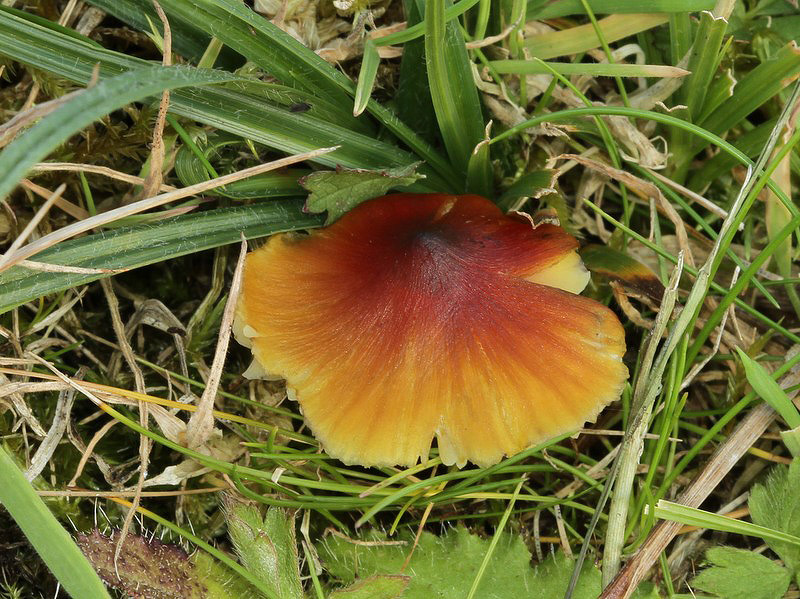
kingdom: Fungi
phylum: Basidiomycota
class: Agaricomycetes
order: Agaricales
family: Hygrophoraceae
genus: Hygrocybe
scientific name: Hygrocybe conica
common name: kegle-vokshat
